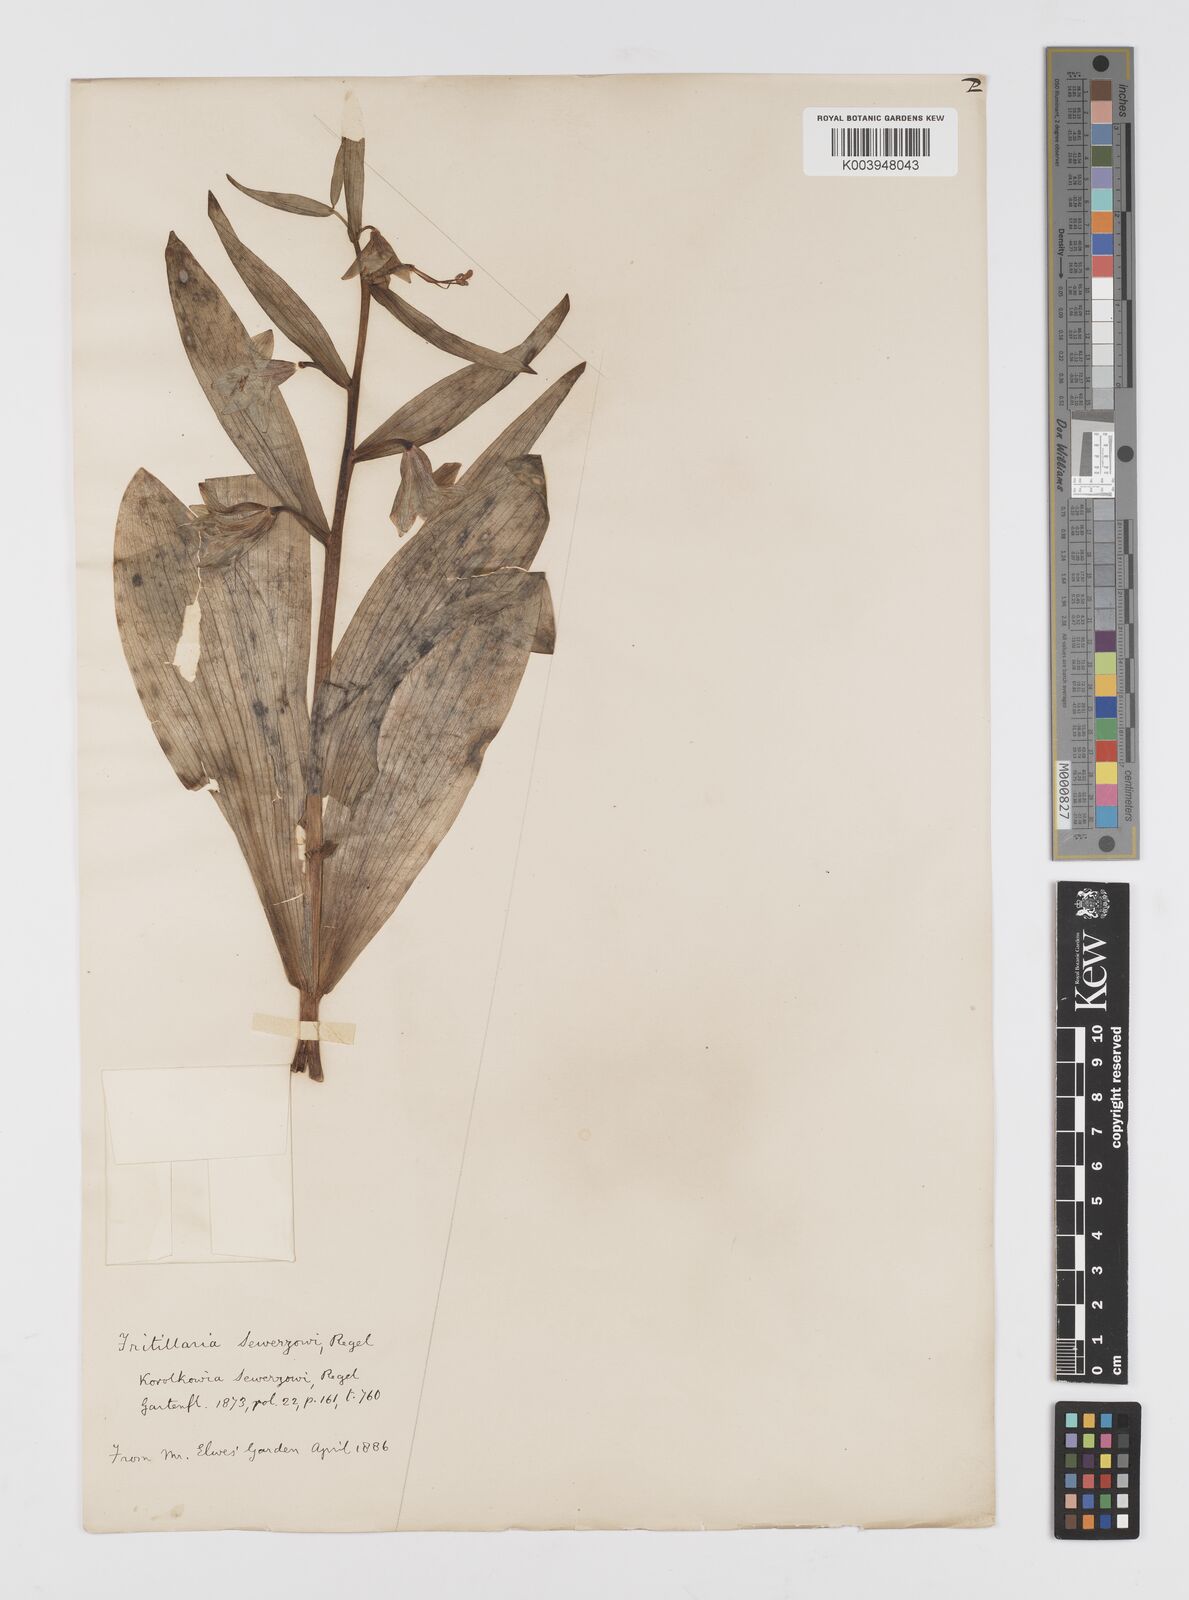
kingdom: Plantae
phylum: Tracheophyta
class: Liliopsida
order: Liliales
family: Liliaceae
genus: Fritillaria
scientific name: Fritillaria sewerzowii
